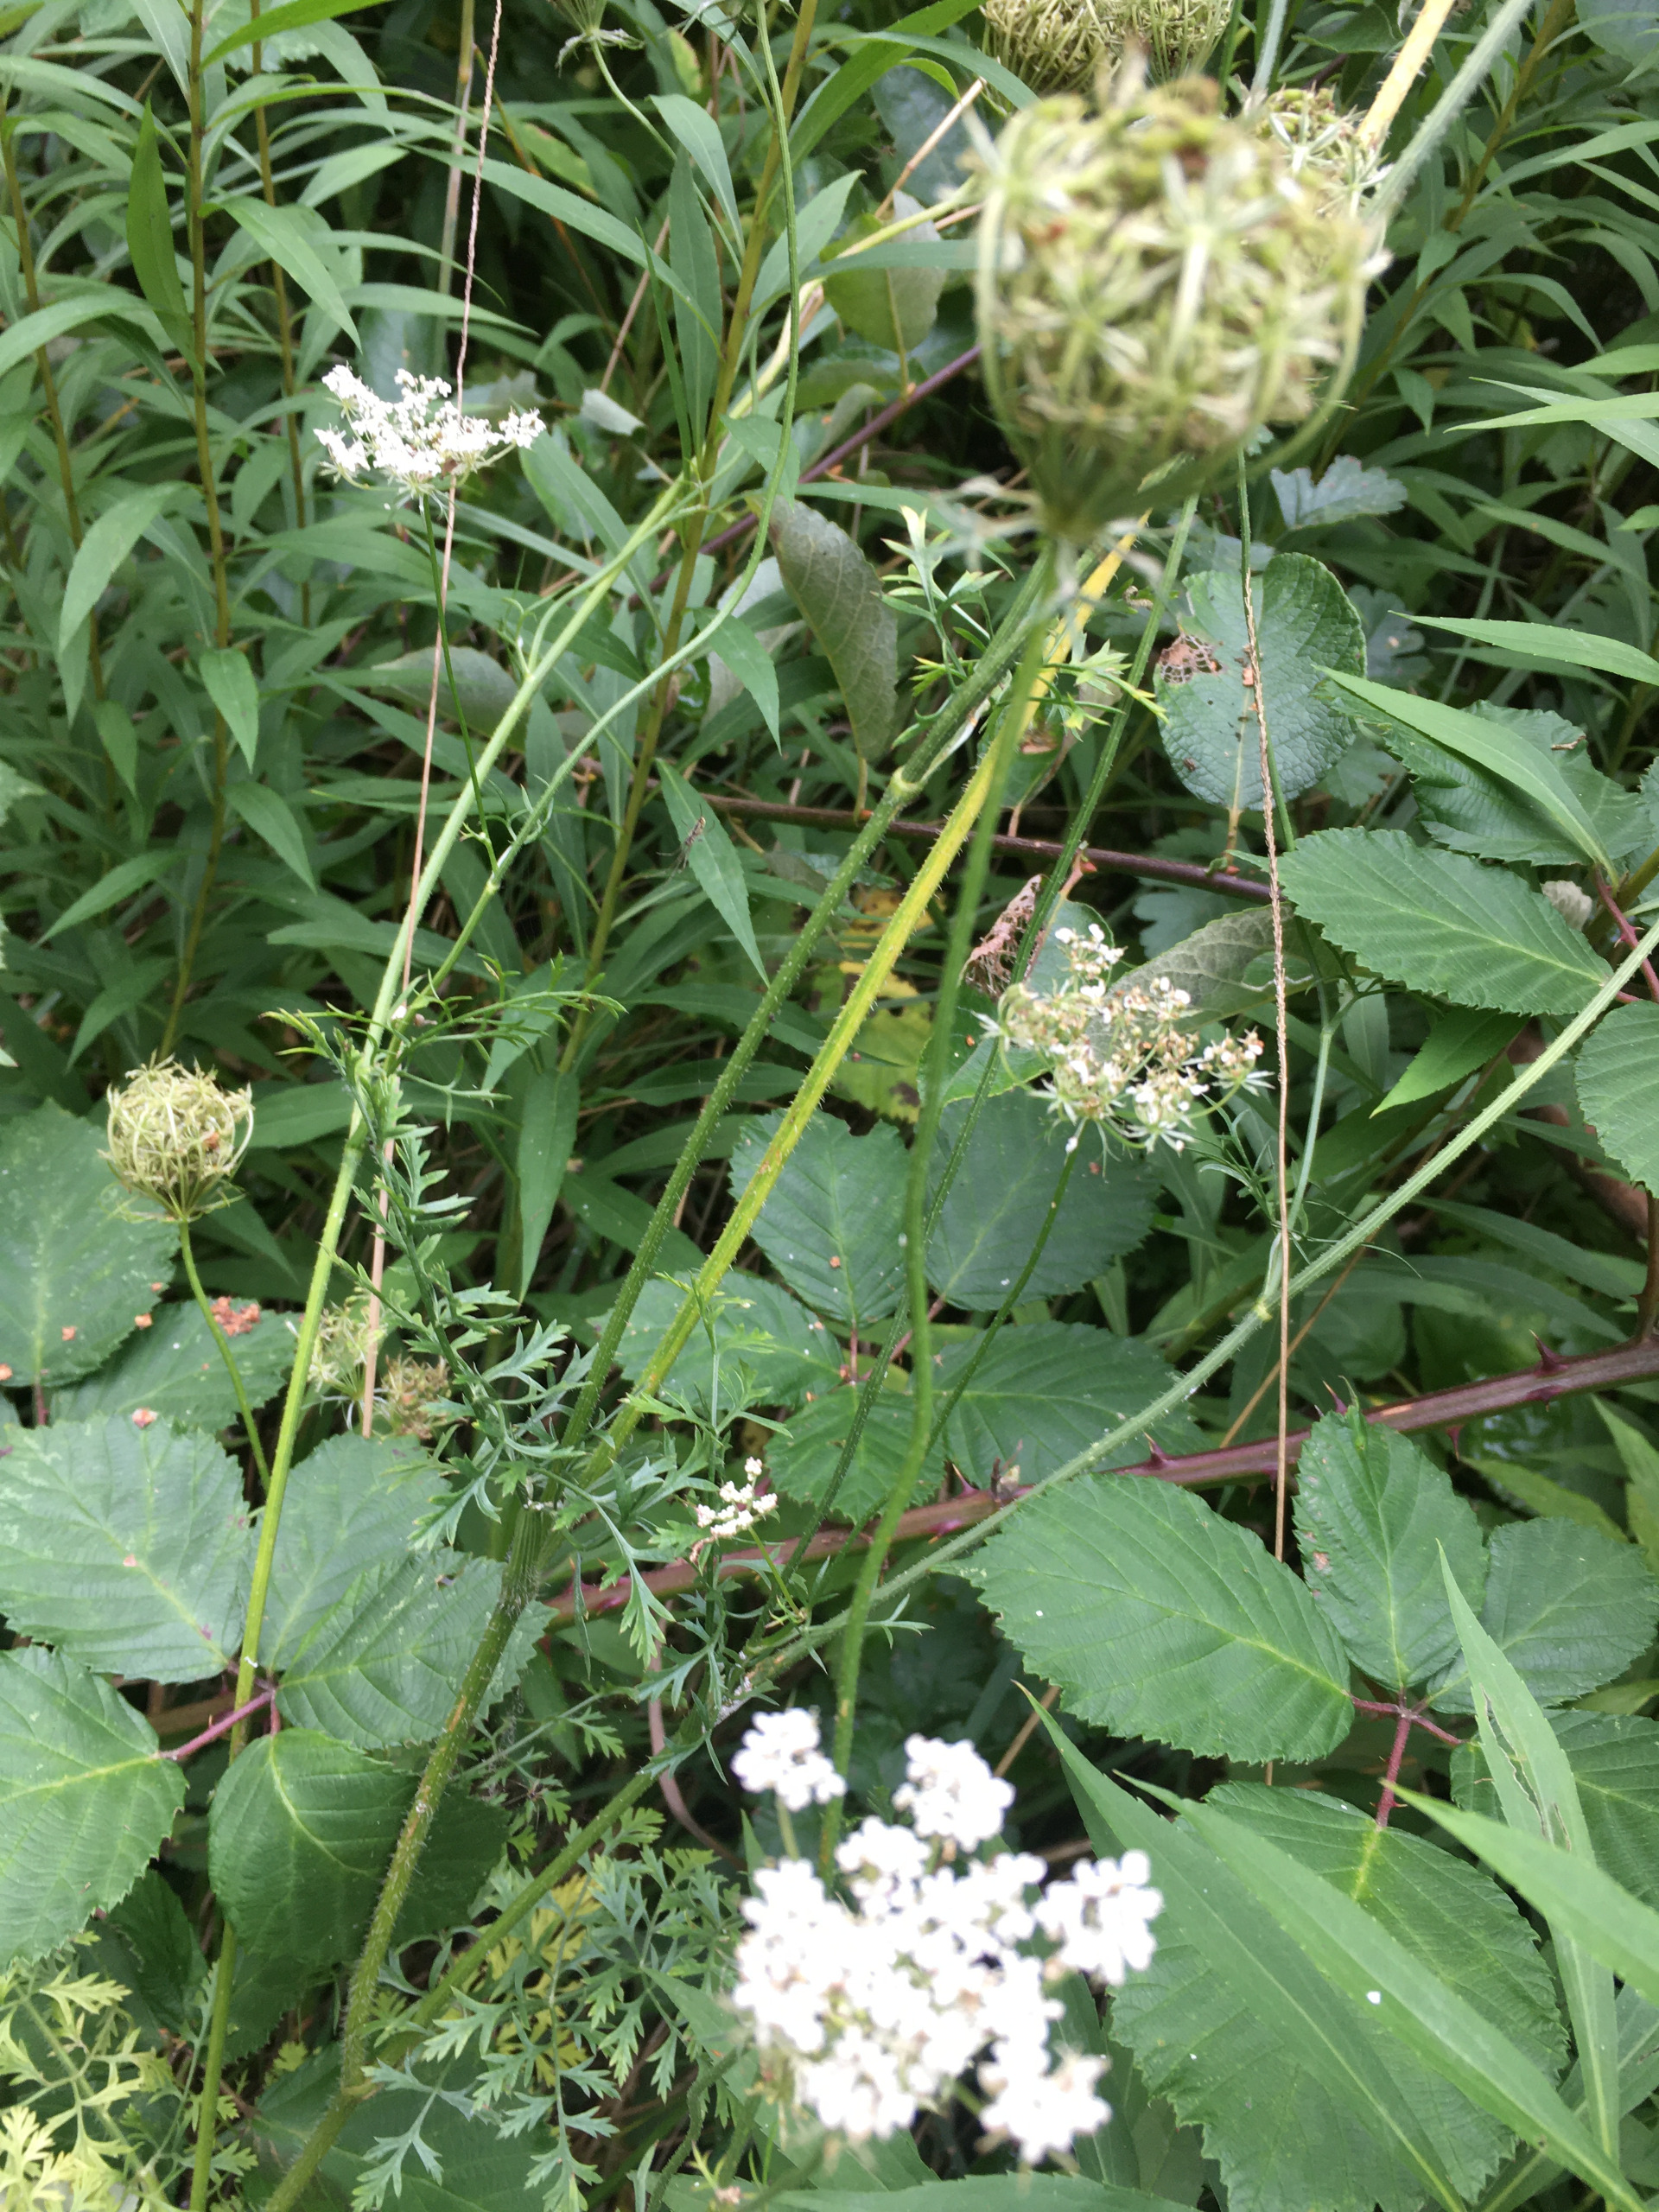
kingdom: Plantae
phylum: Tracheophyta
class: Magnoliopsida
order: Apiales
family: Apiaceae
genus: Daucus
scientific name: Daucus carota
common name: Gulerod
